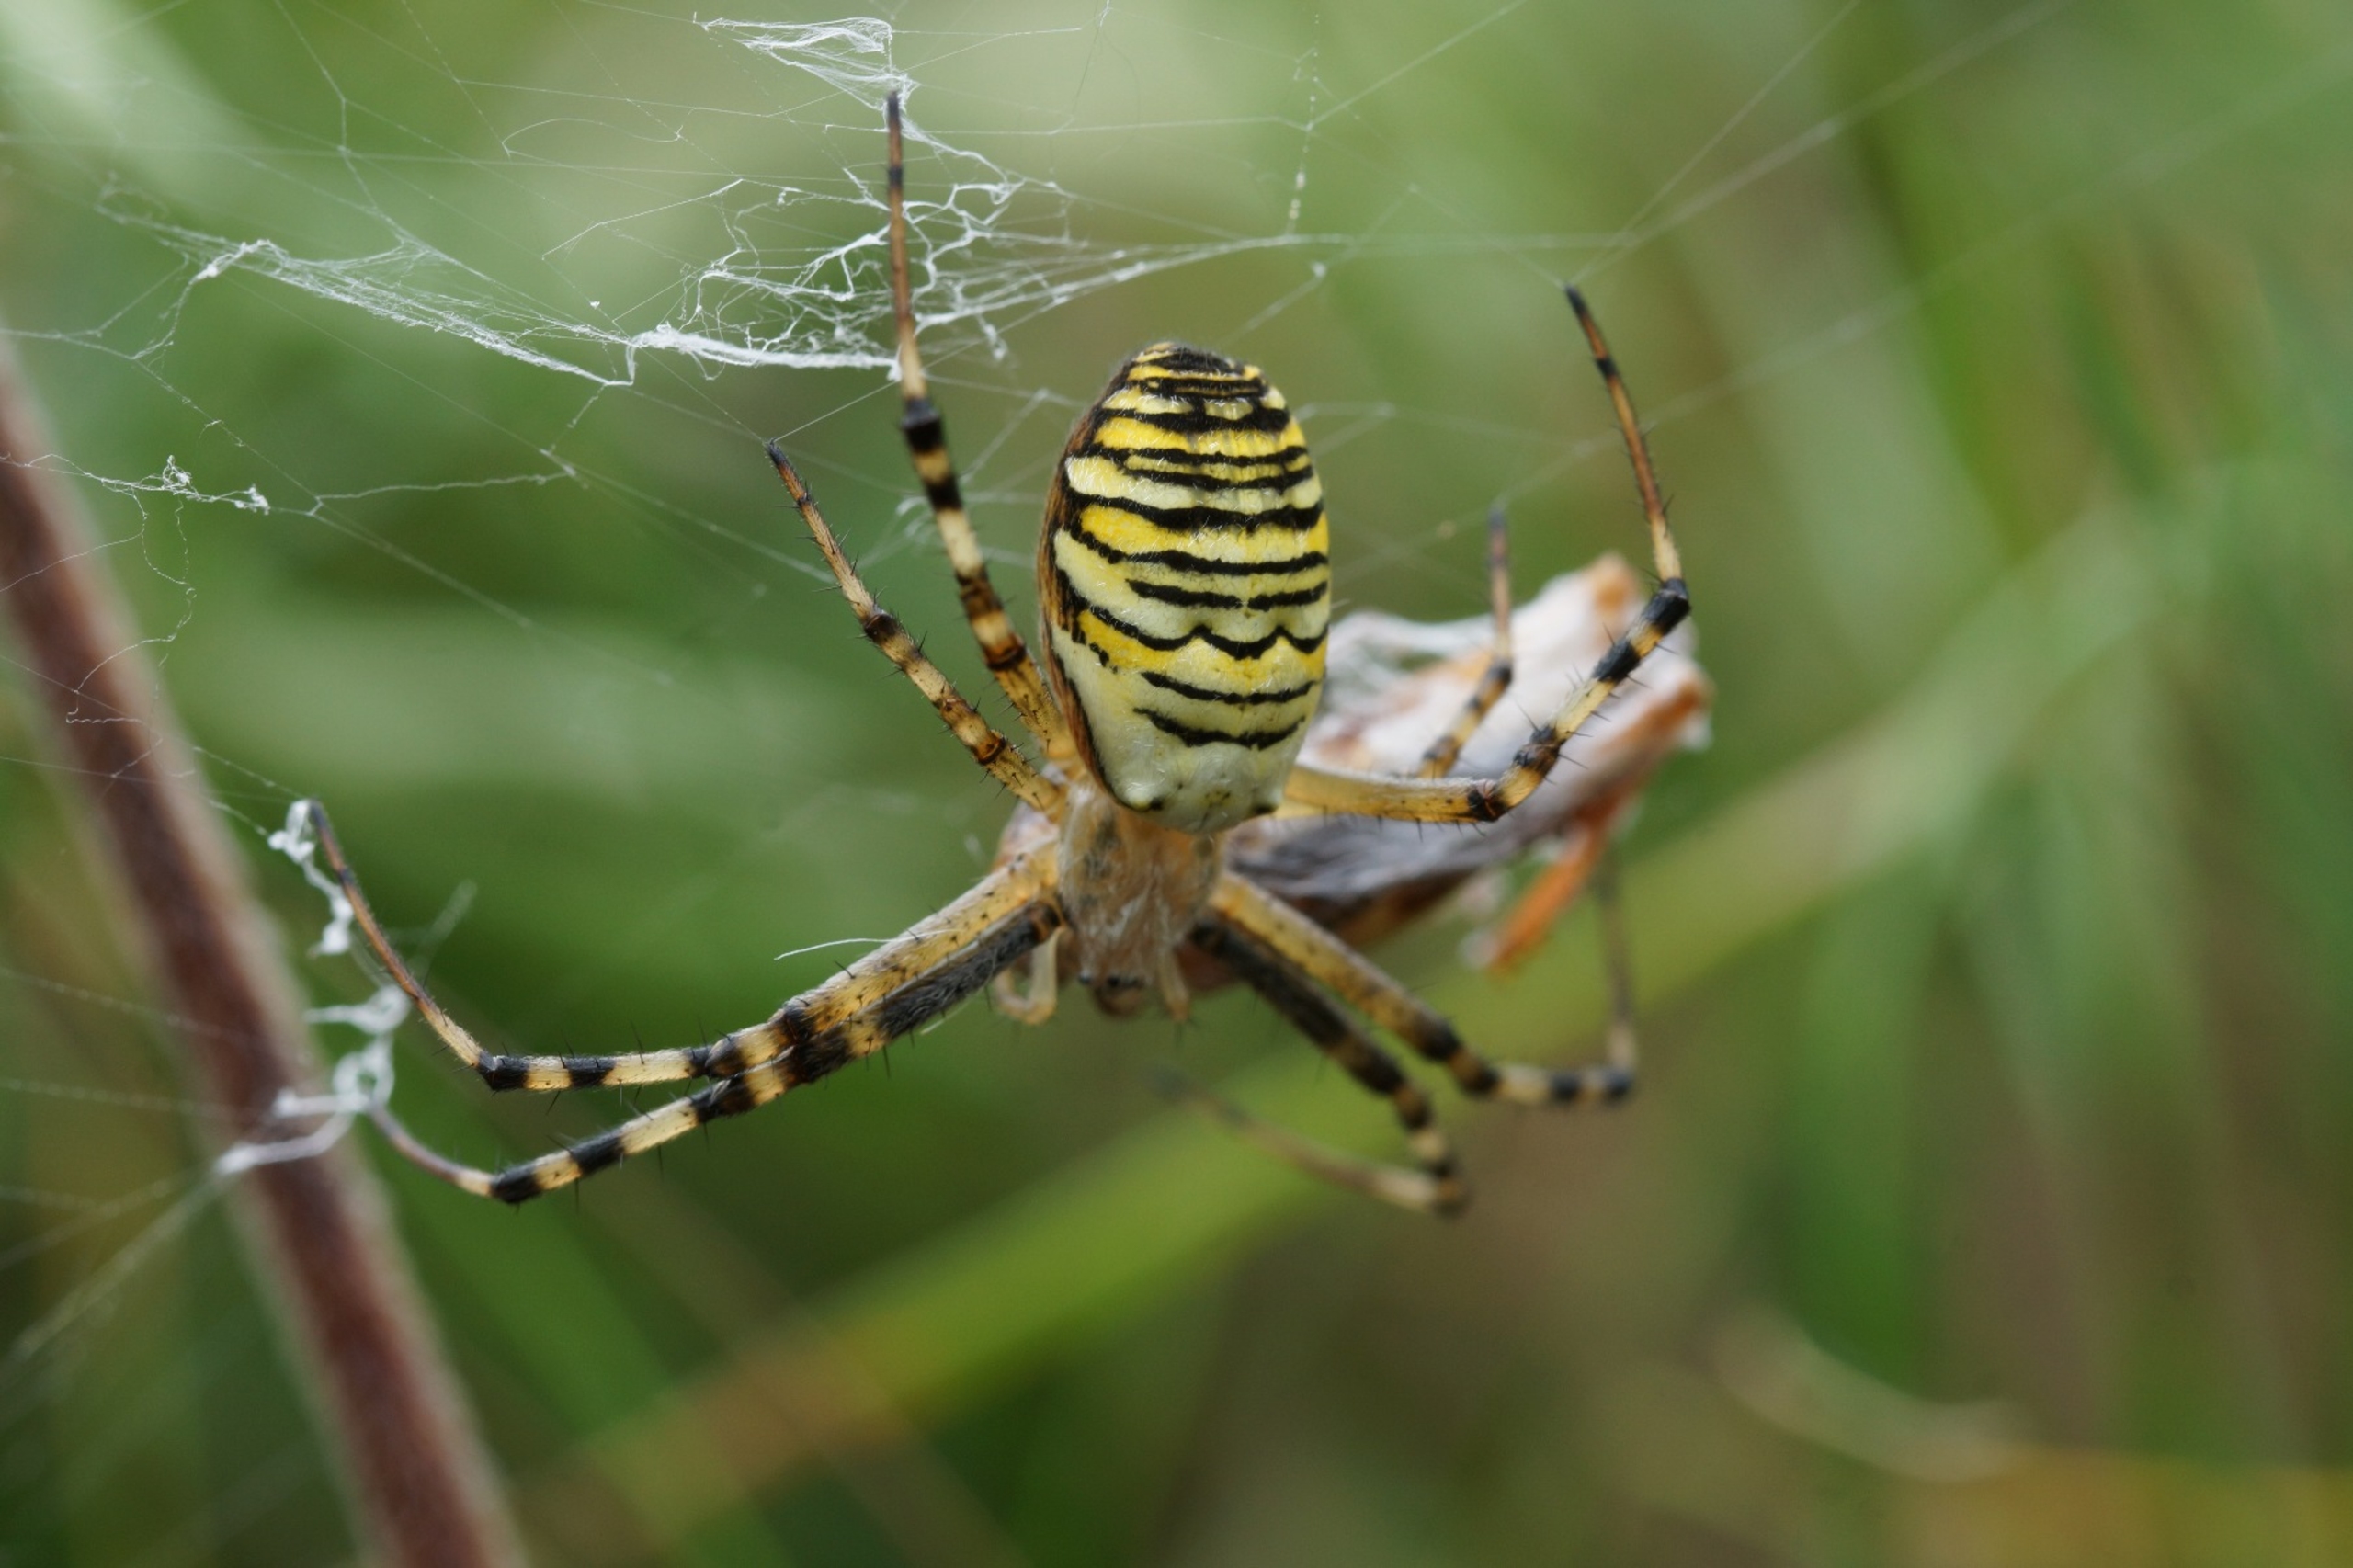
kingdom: Animalia
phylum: Arthropoda
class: Arachnida
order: Araneae
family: Araneidae
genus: Argiope
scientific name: Argiope bruennichi
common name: Hvepseedderkop
